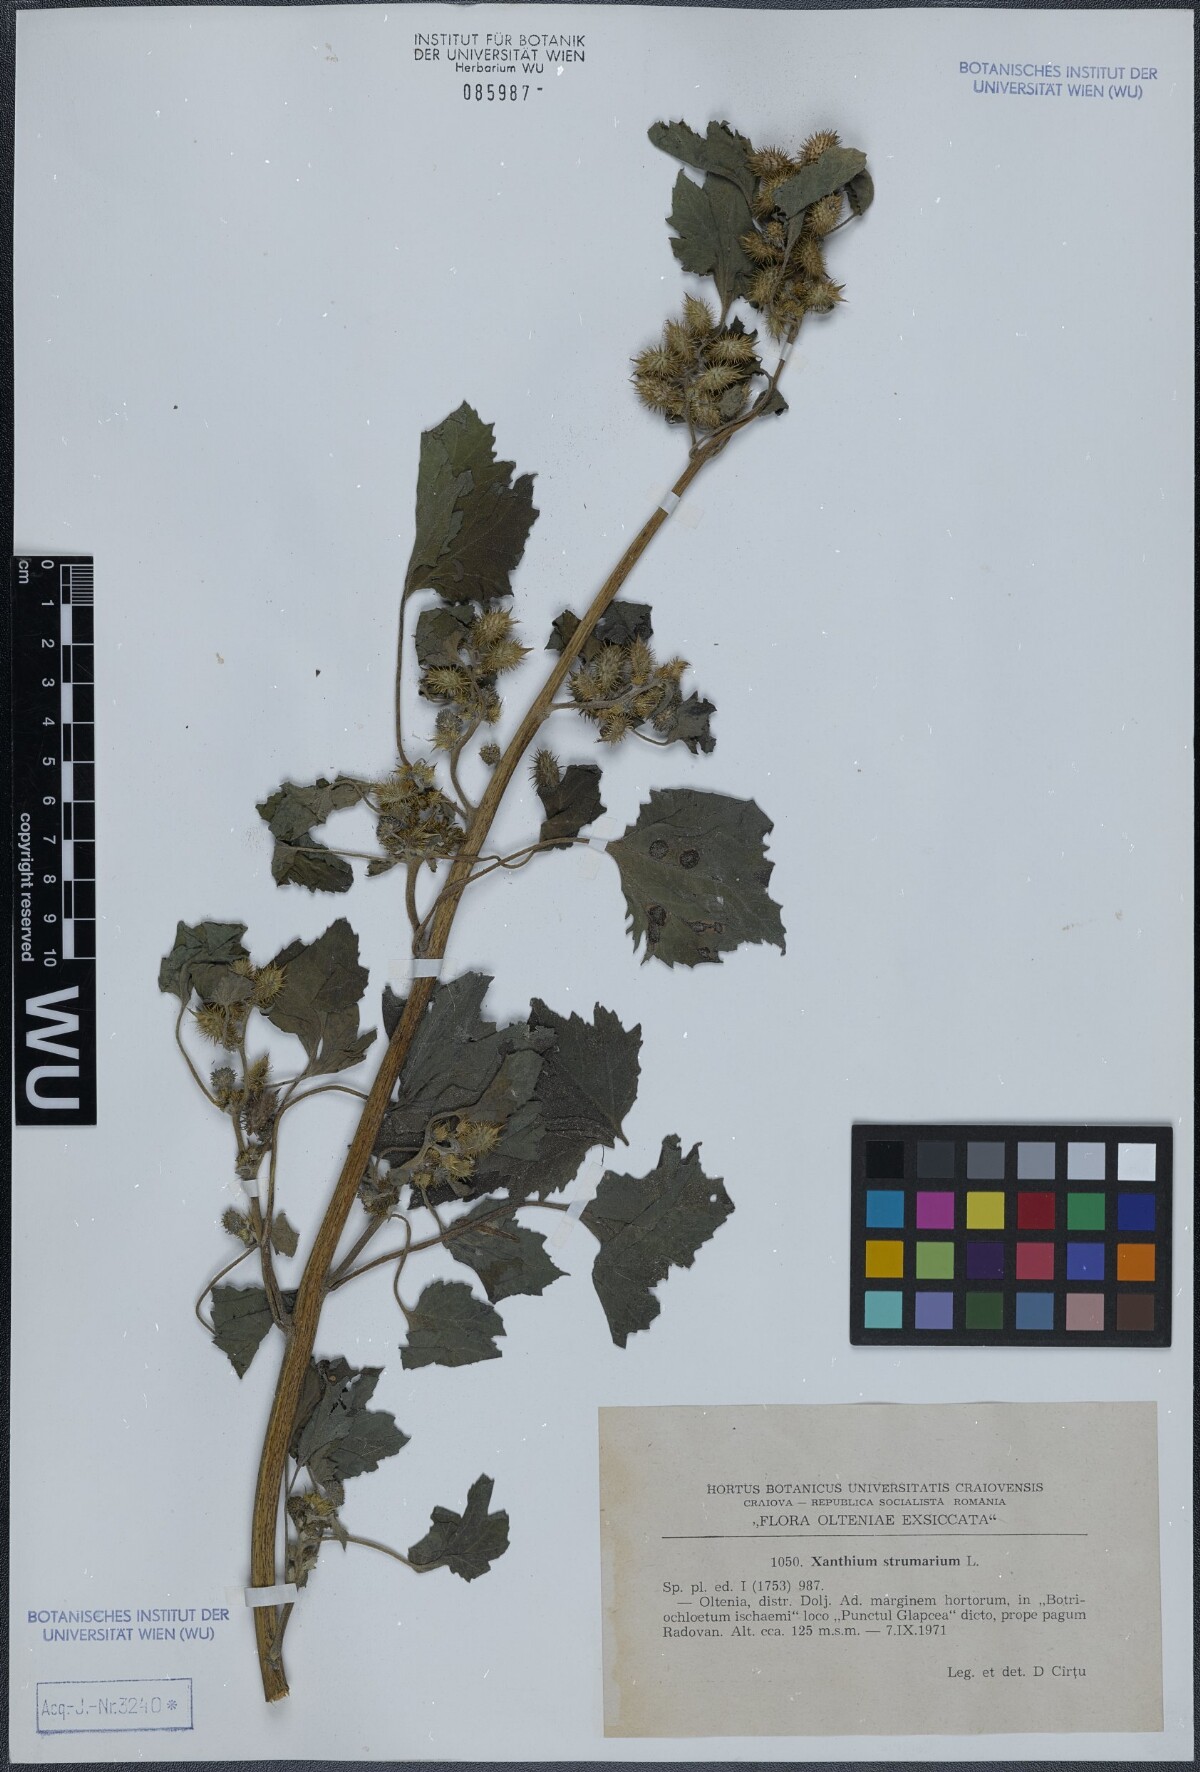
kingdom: Plantae
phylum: Tracheophyta
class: Magnoliopsida
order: Asterales
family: Asteraceae
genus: Xanthium
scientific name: Xanthium strumarium
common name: Rough cocklebur
